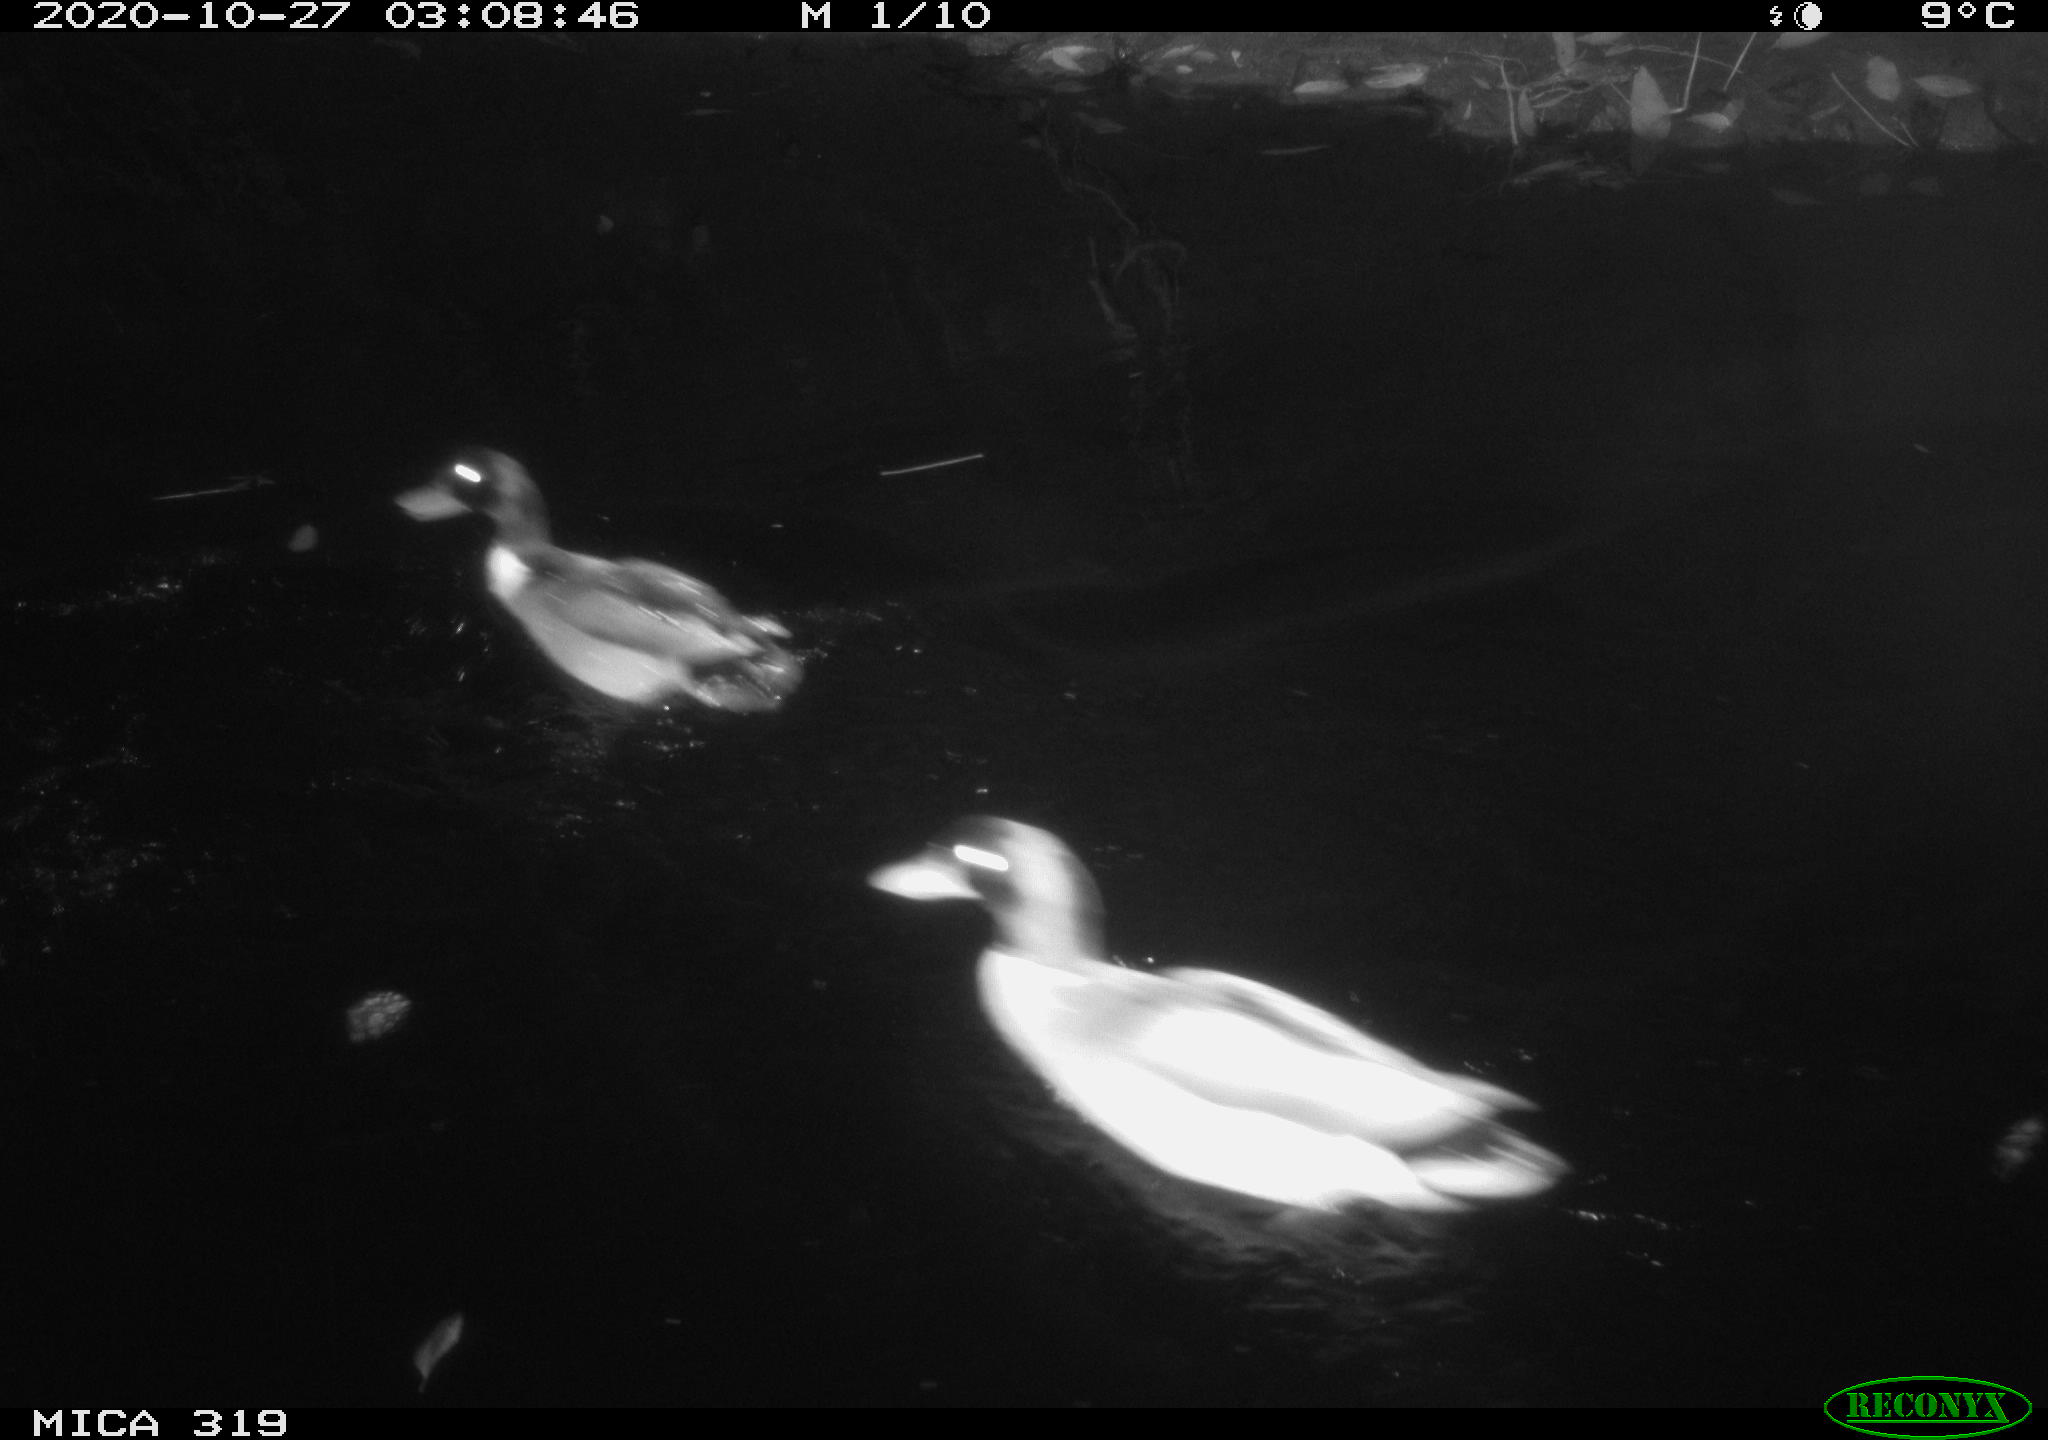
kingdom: Animalia
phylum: Chordata
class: Aves
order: Anseriformes
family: Anatidae
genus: Anas
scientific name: Anas platyrhynchos
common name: Mallard
